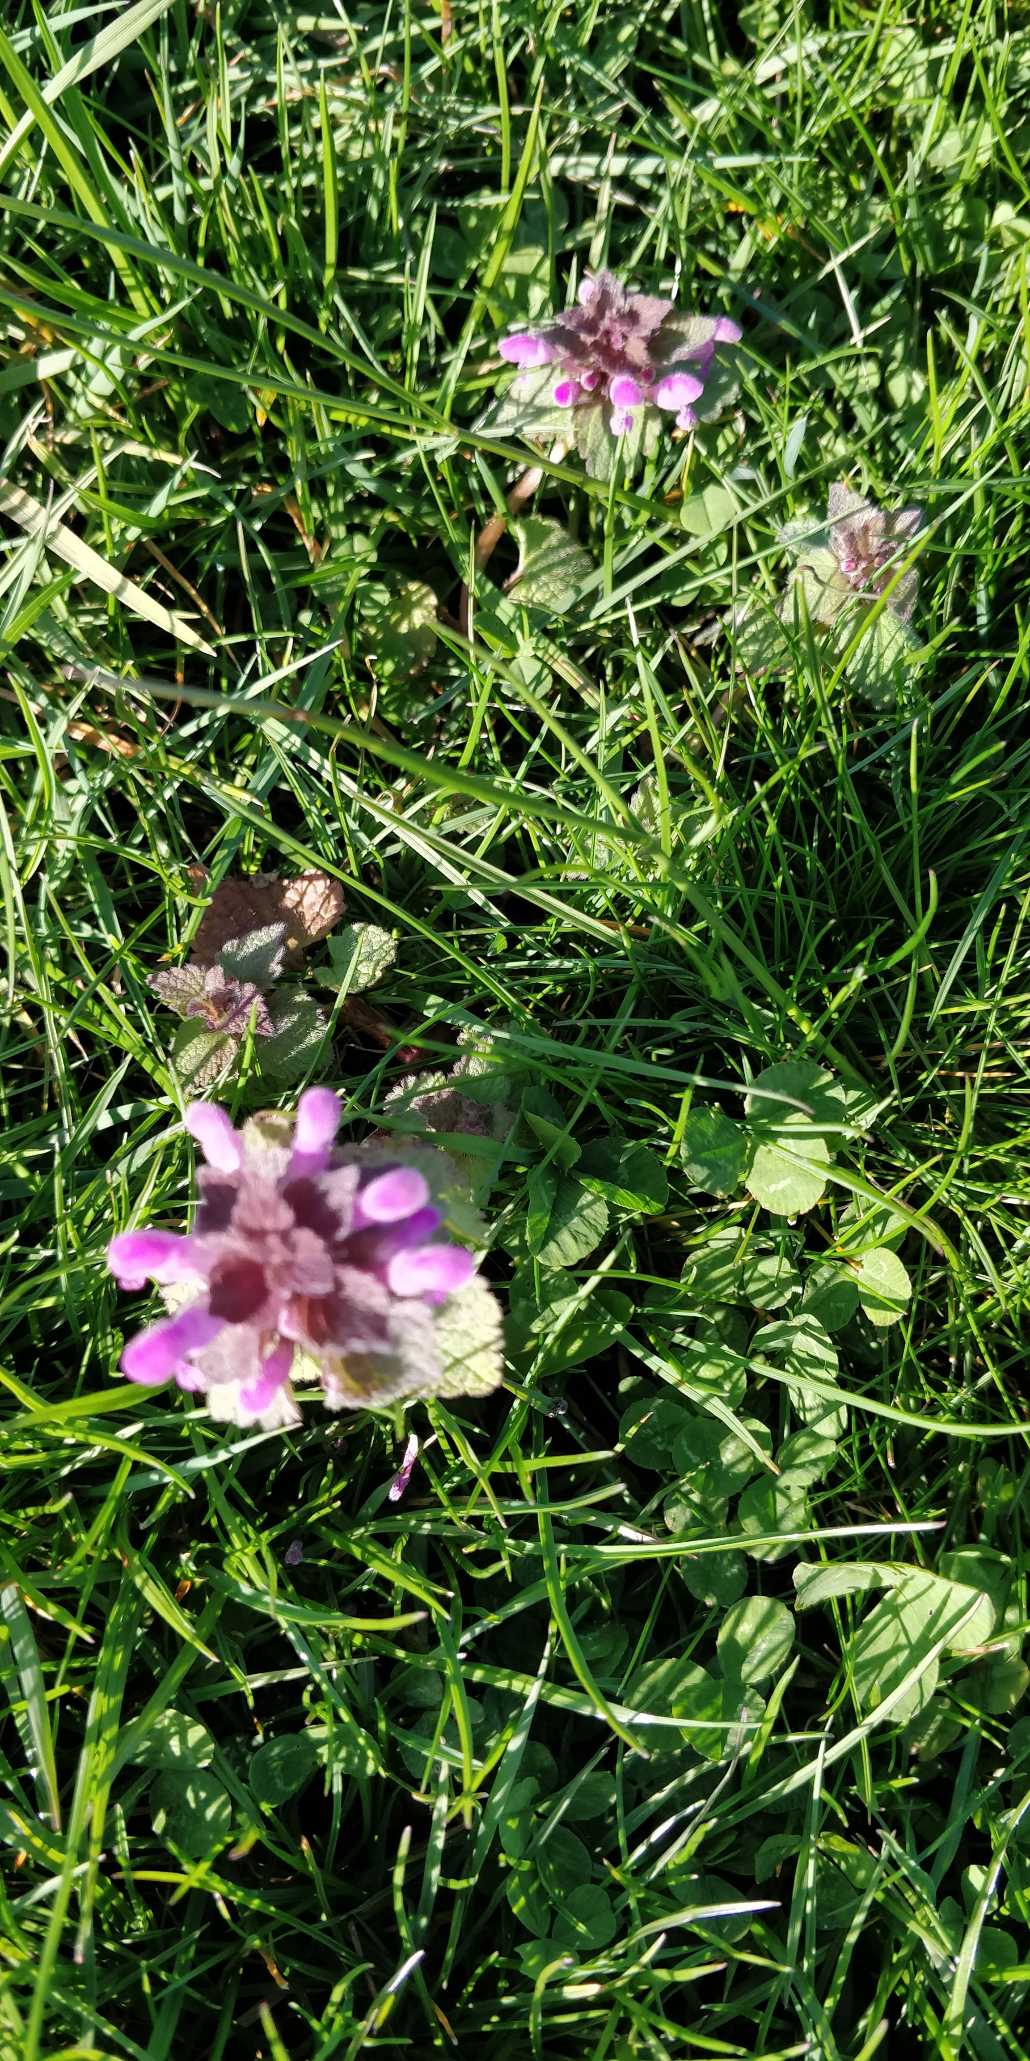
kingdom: Plantae
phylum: Tracheophyta
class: Magnoliopsida
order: Lamiales
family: Lamiaceae
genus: Lamium
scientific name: Lamium purpureum
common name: Rød tvetand
